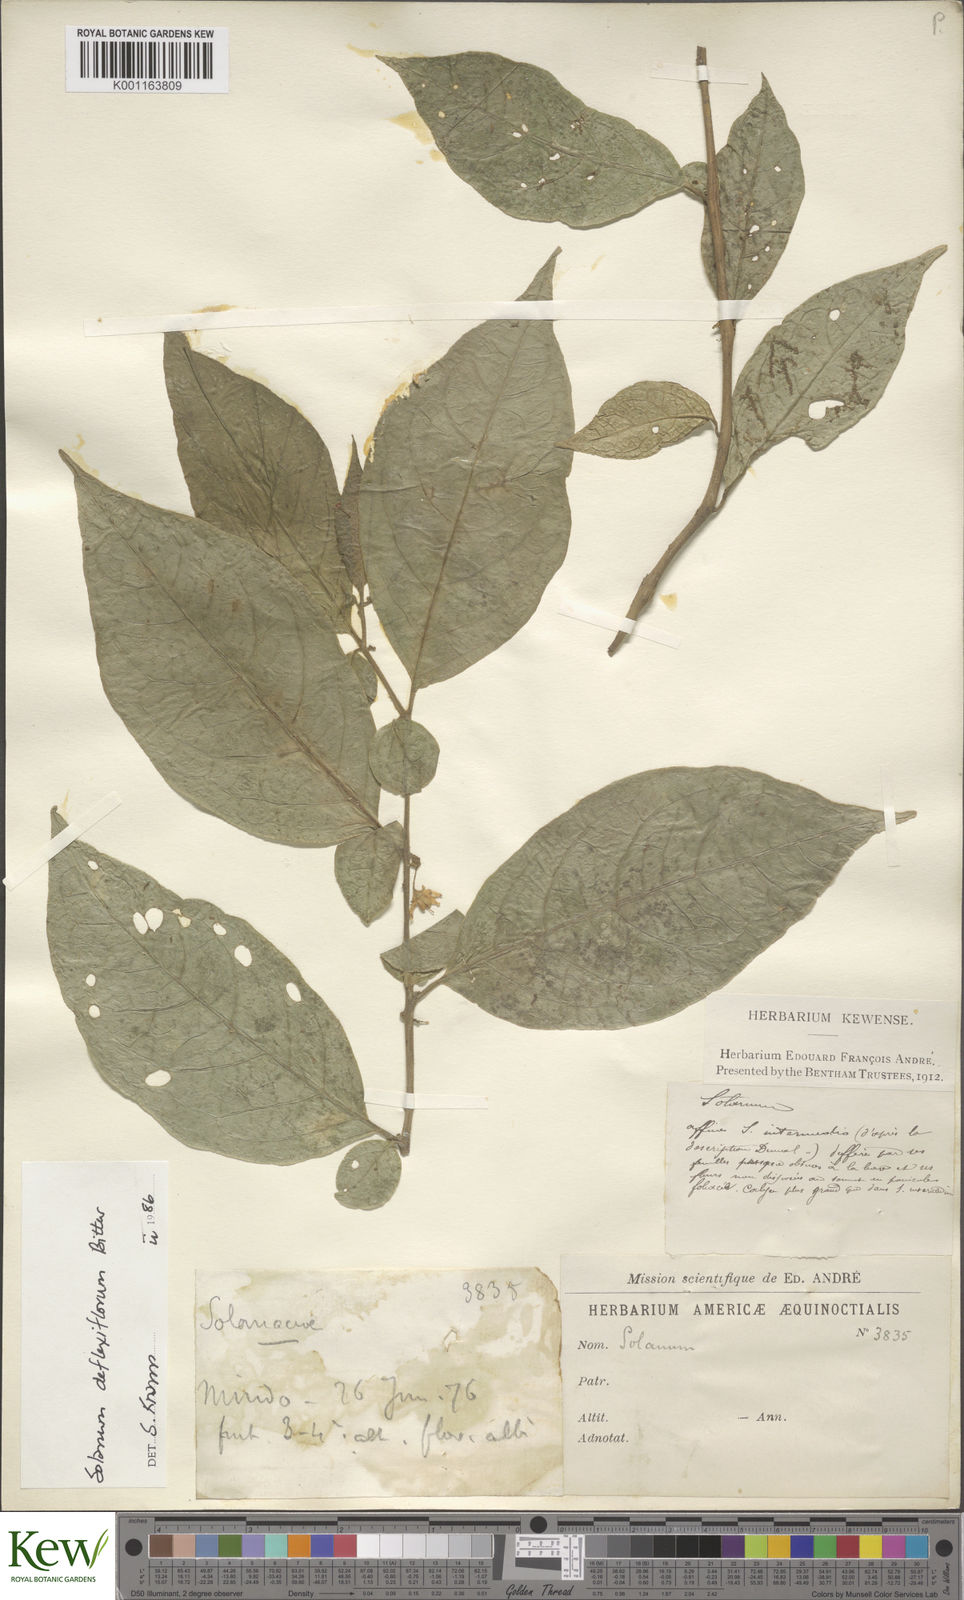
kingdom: Plantae
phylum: Tracheophyta
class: Magnoliopsida
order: Solanales
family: Solanaceae
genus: Solanum
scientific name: Solanum deflexiflorum
